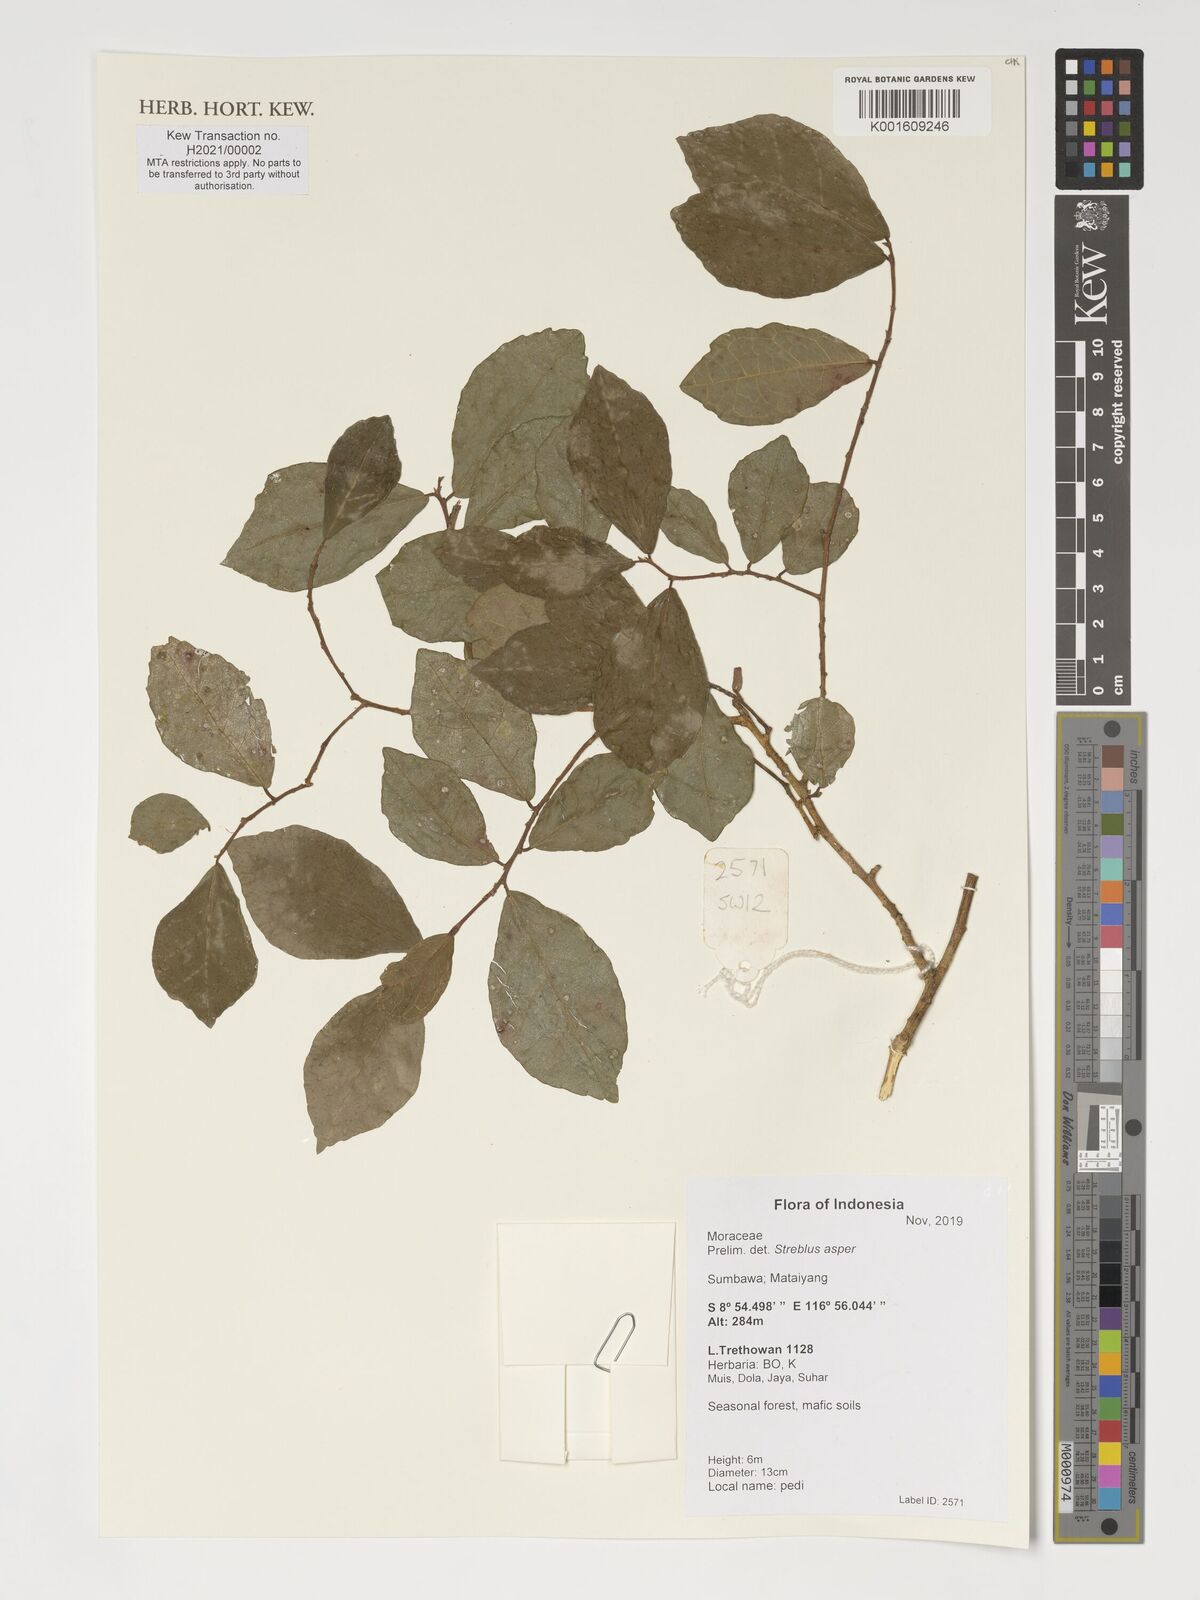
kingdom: Plantae
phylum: Tracheophyta
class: Magnoliopsida
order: Rosales
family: Moraceae
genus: Streblus
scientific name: Streblus asper
